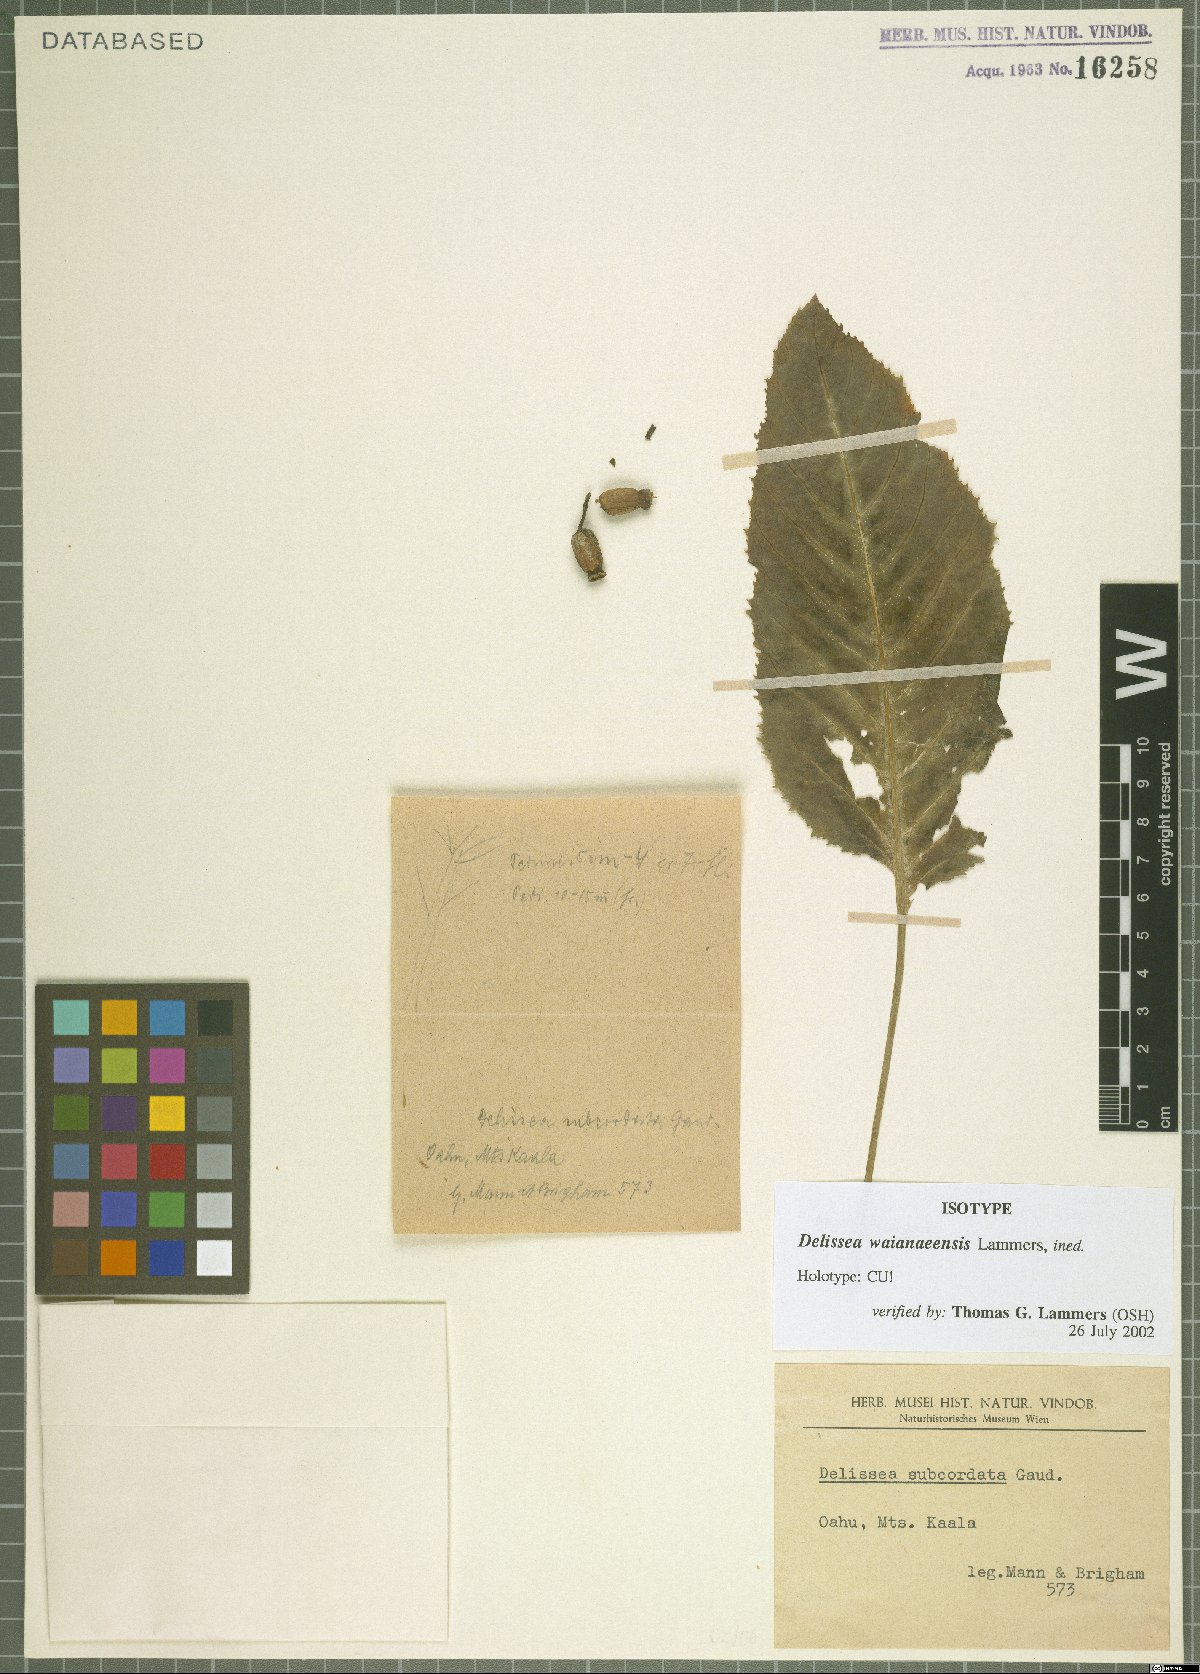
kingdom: Plantae
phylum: Tracheophyta
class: Magnoliopsida
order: Asterales
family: Campanulaceae
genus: Delissea
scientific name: Delissea waianaeensis
